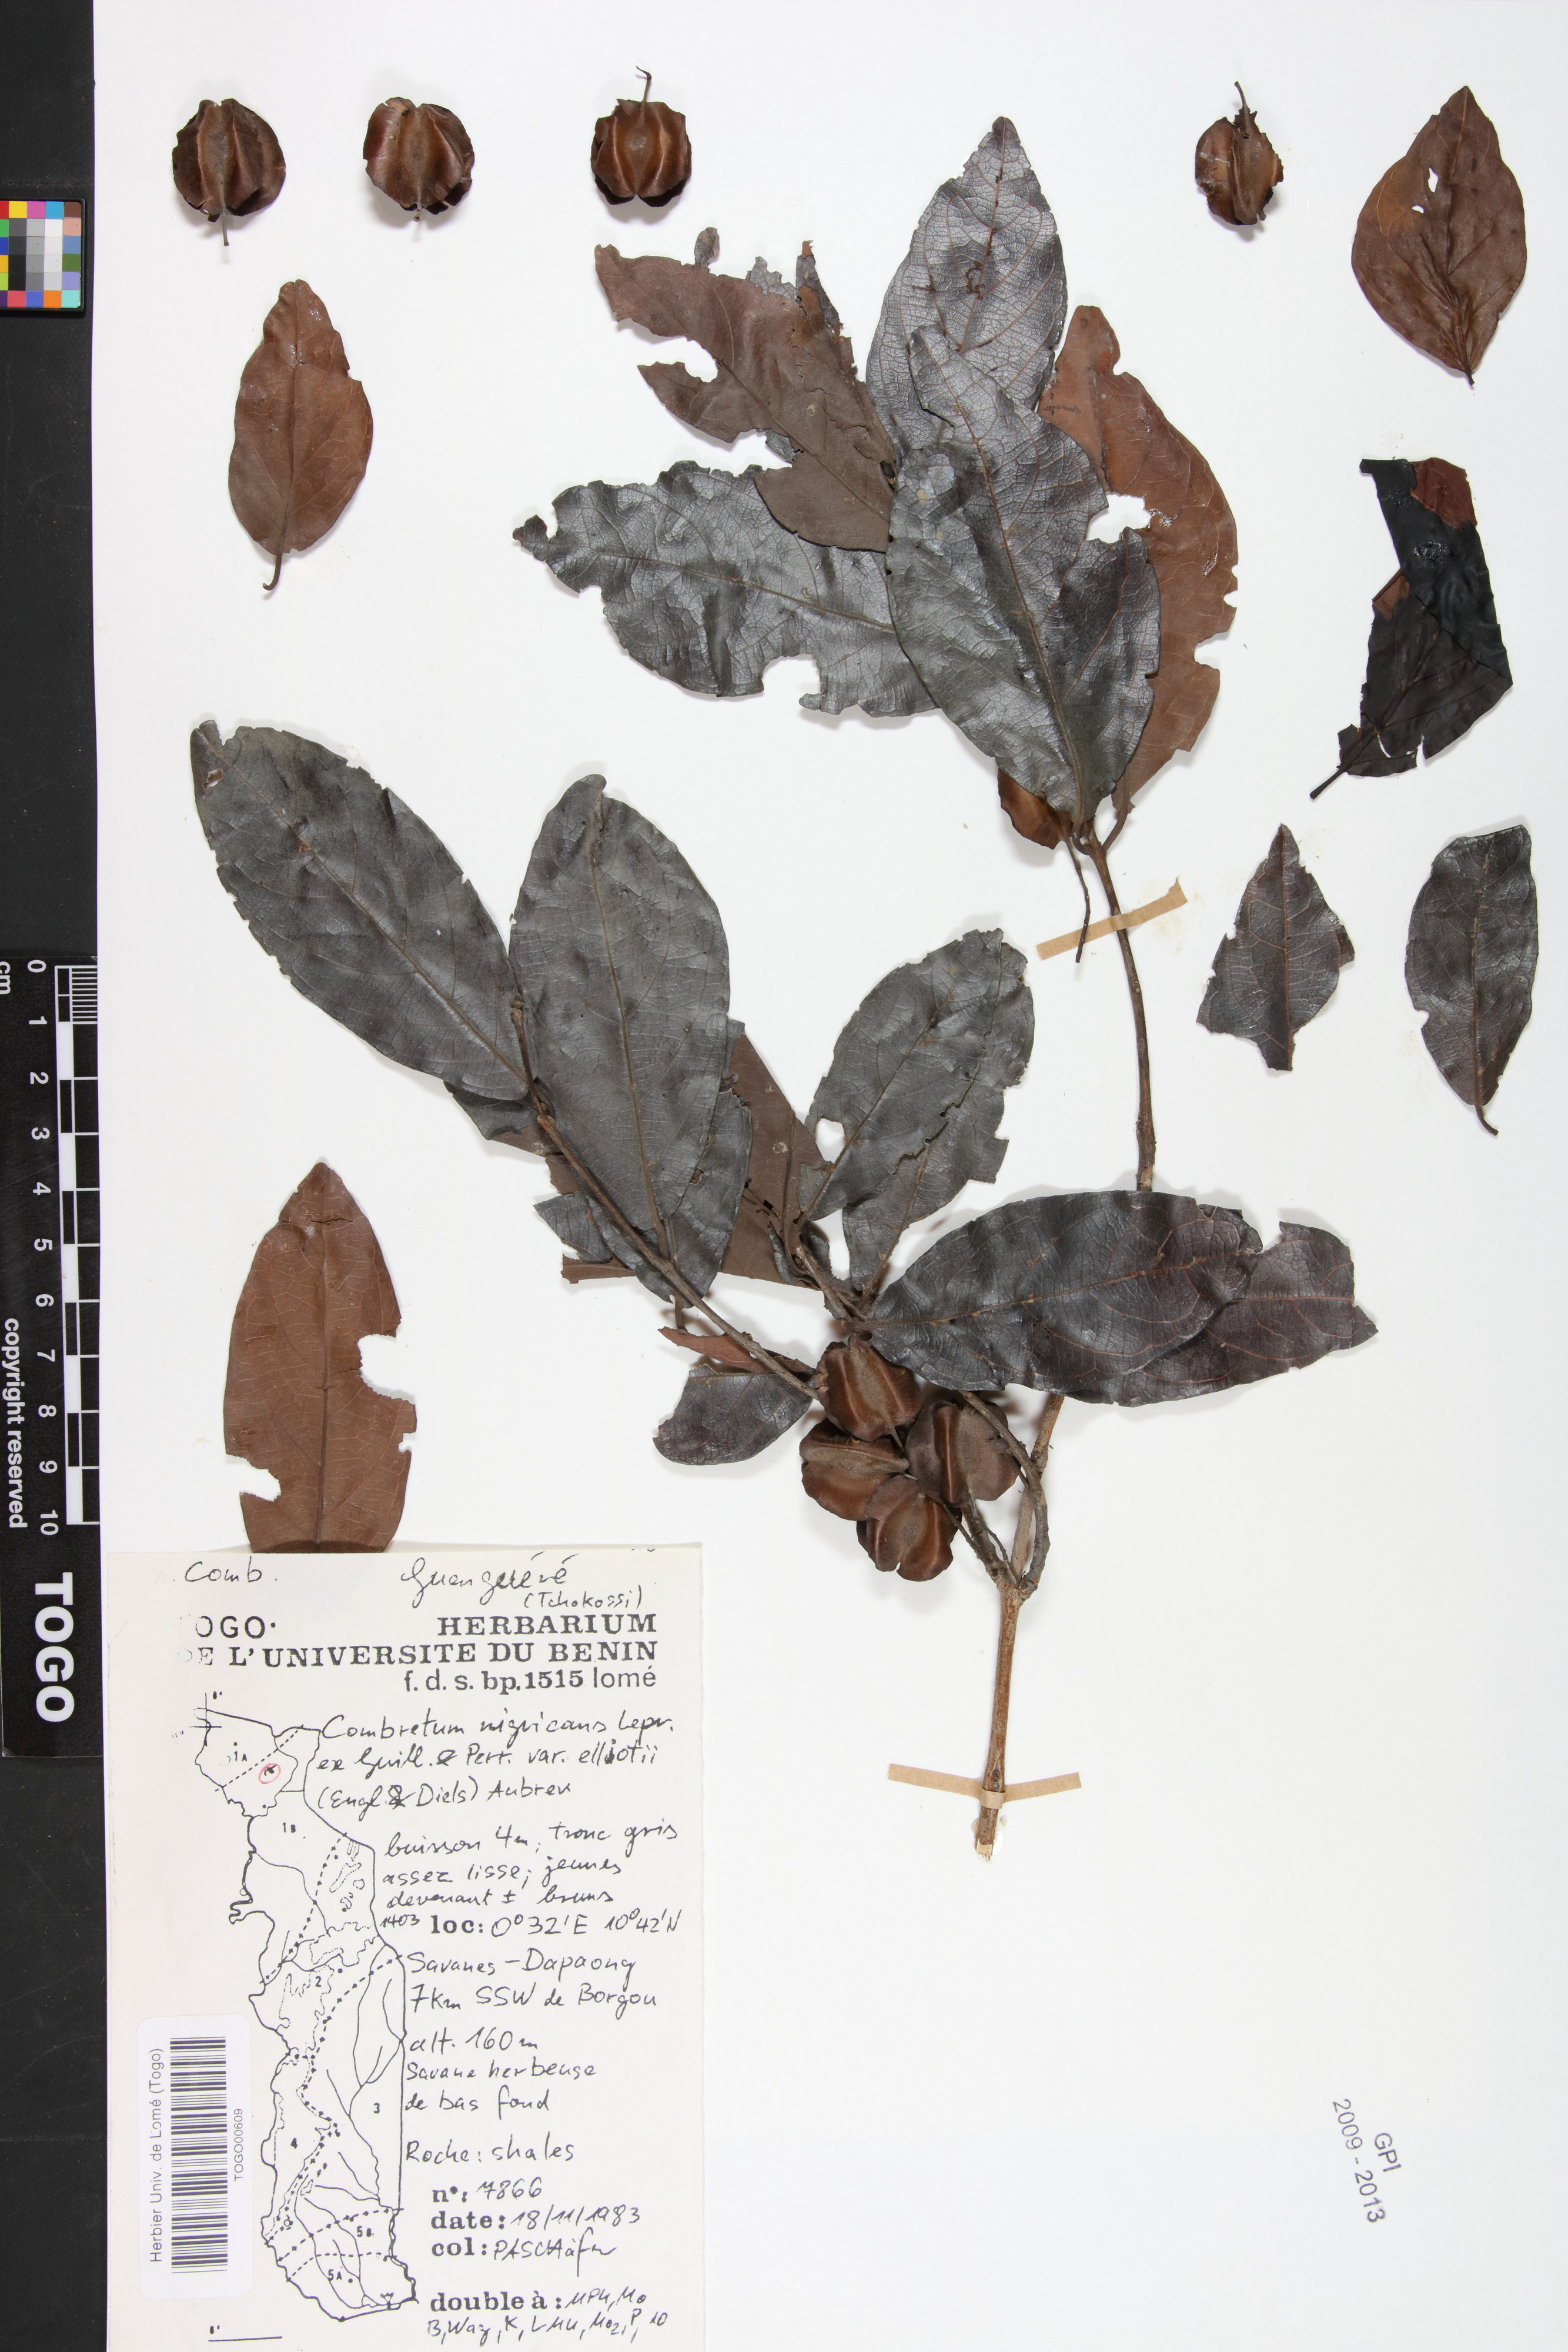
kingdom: Plantae
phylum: Tracheophyta
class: Magnoliopsida
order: Myrtales
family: Combretaceae
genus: Combretum
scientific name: Combretum nigricans
